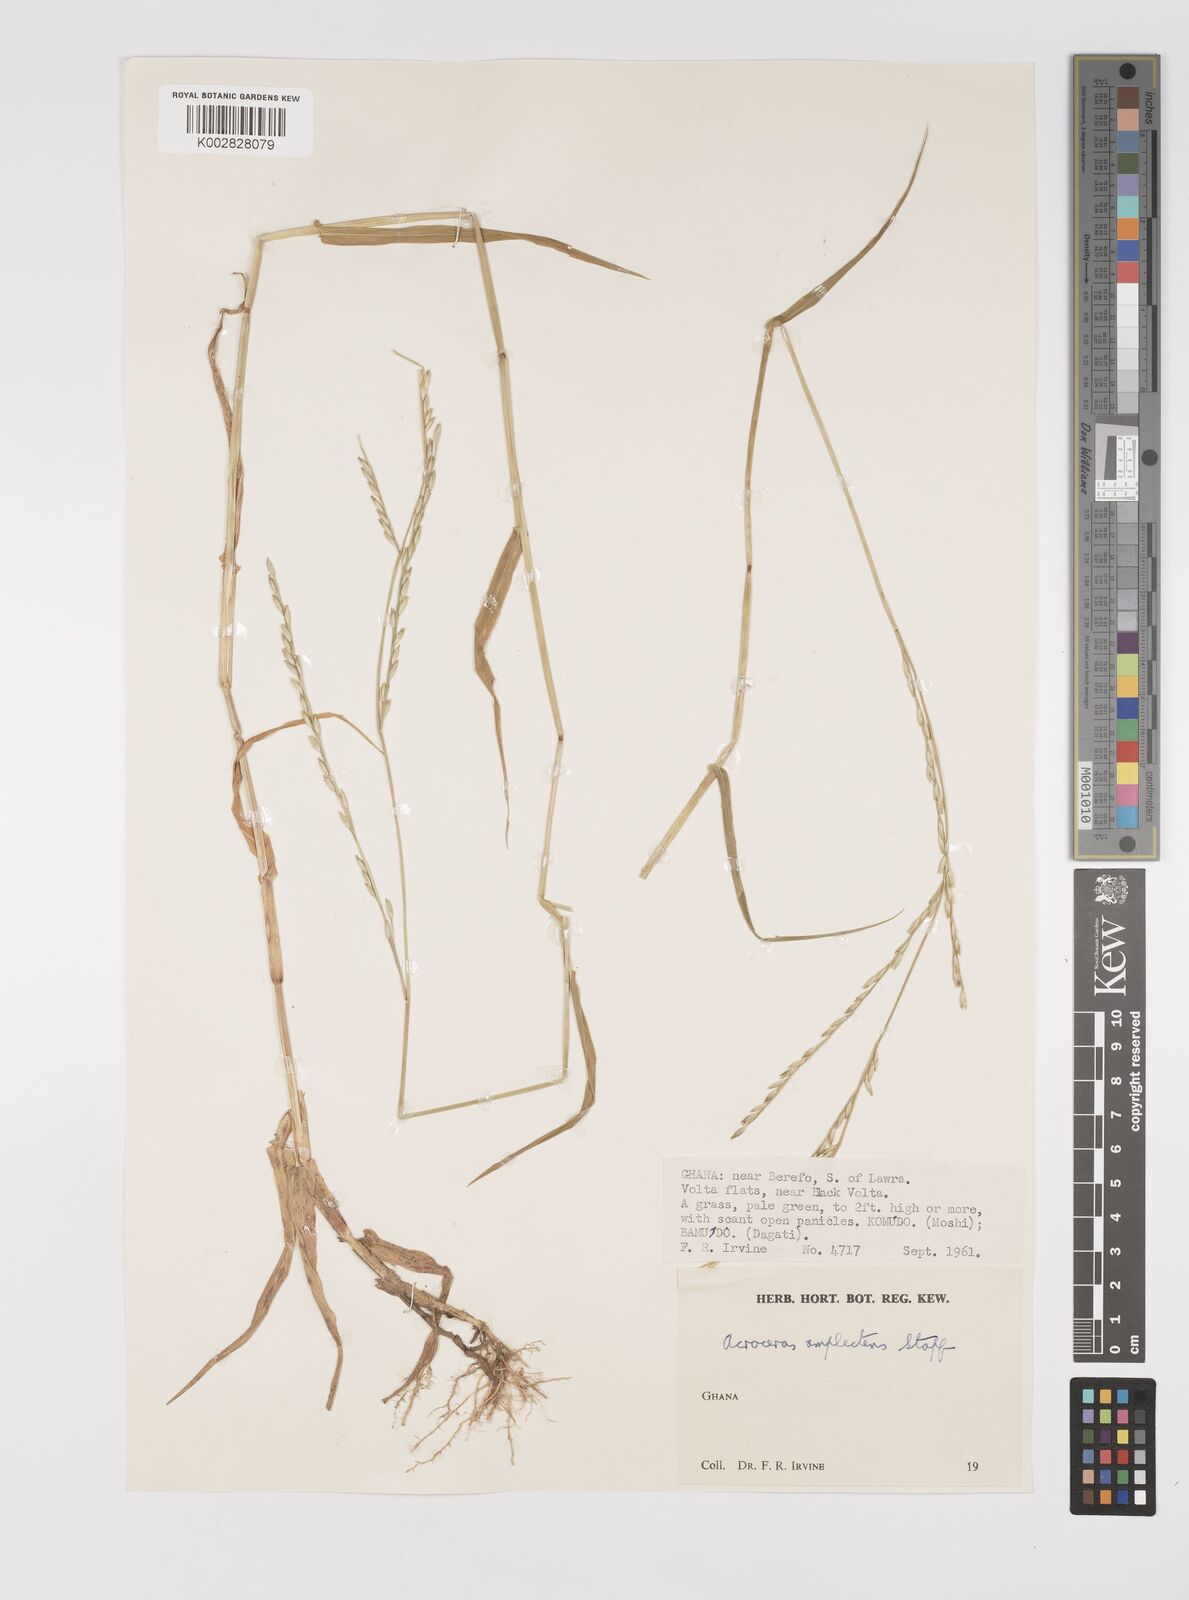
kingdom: Plantae
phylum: Tracheophyta
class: Liliopsida
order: Poales
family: Poaceae
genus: Acroceras
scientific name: Acroceras amplectens
